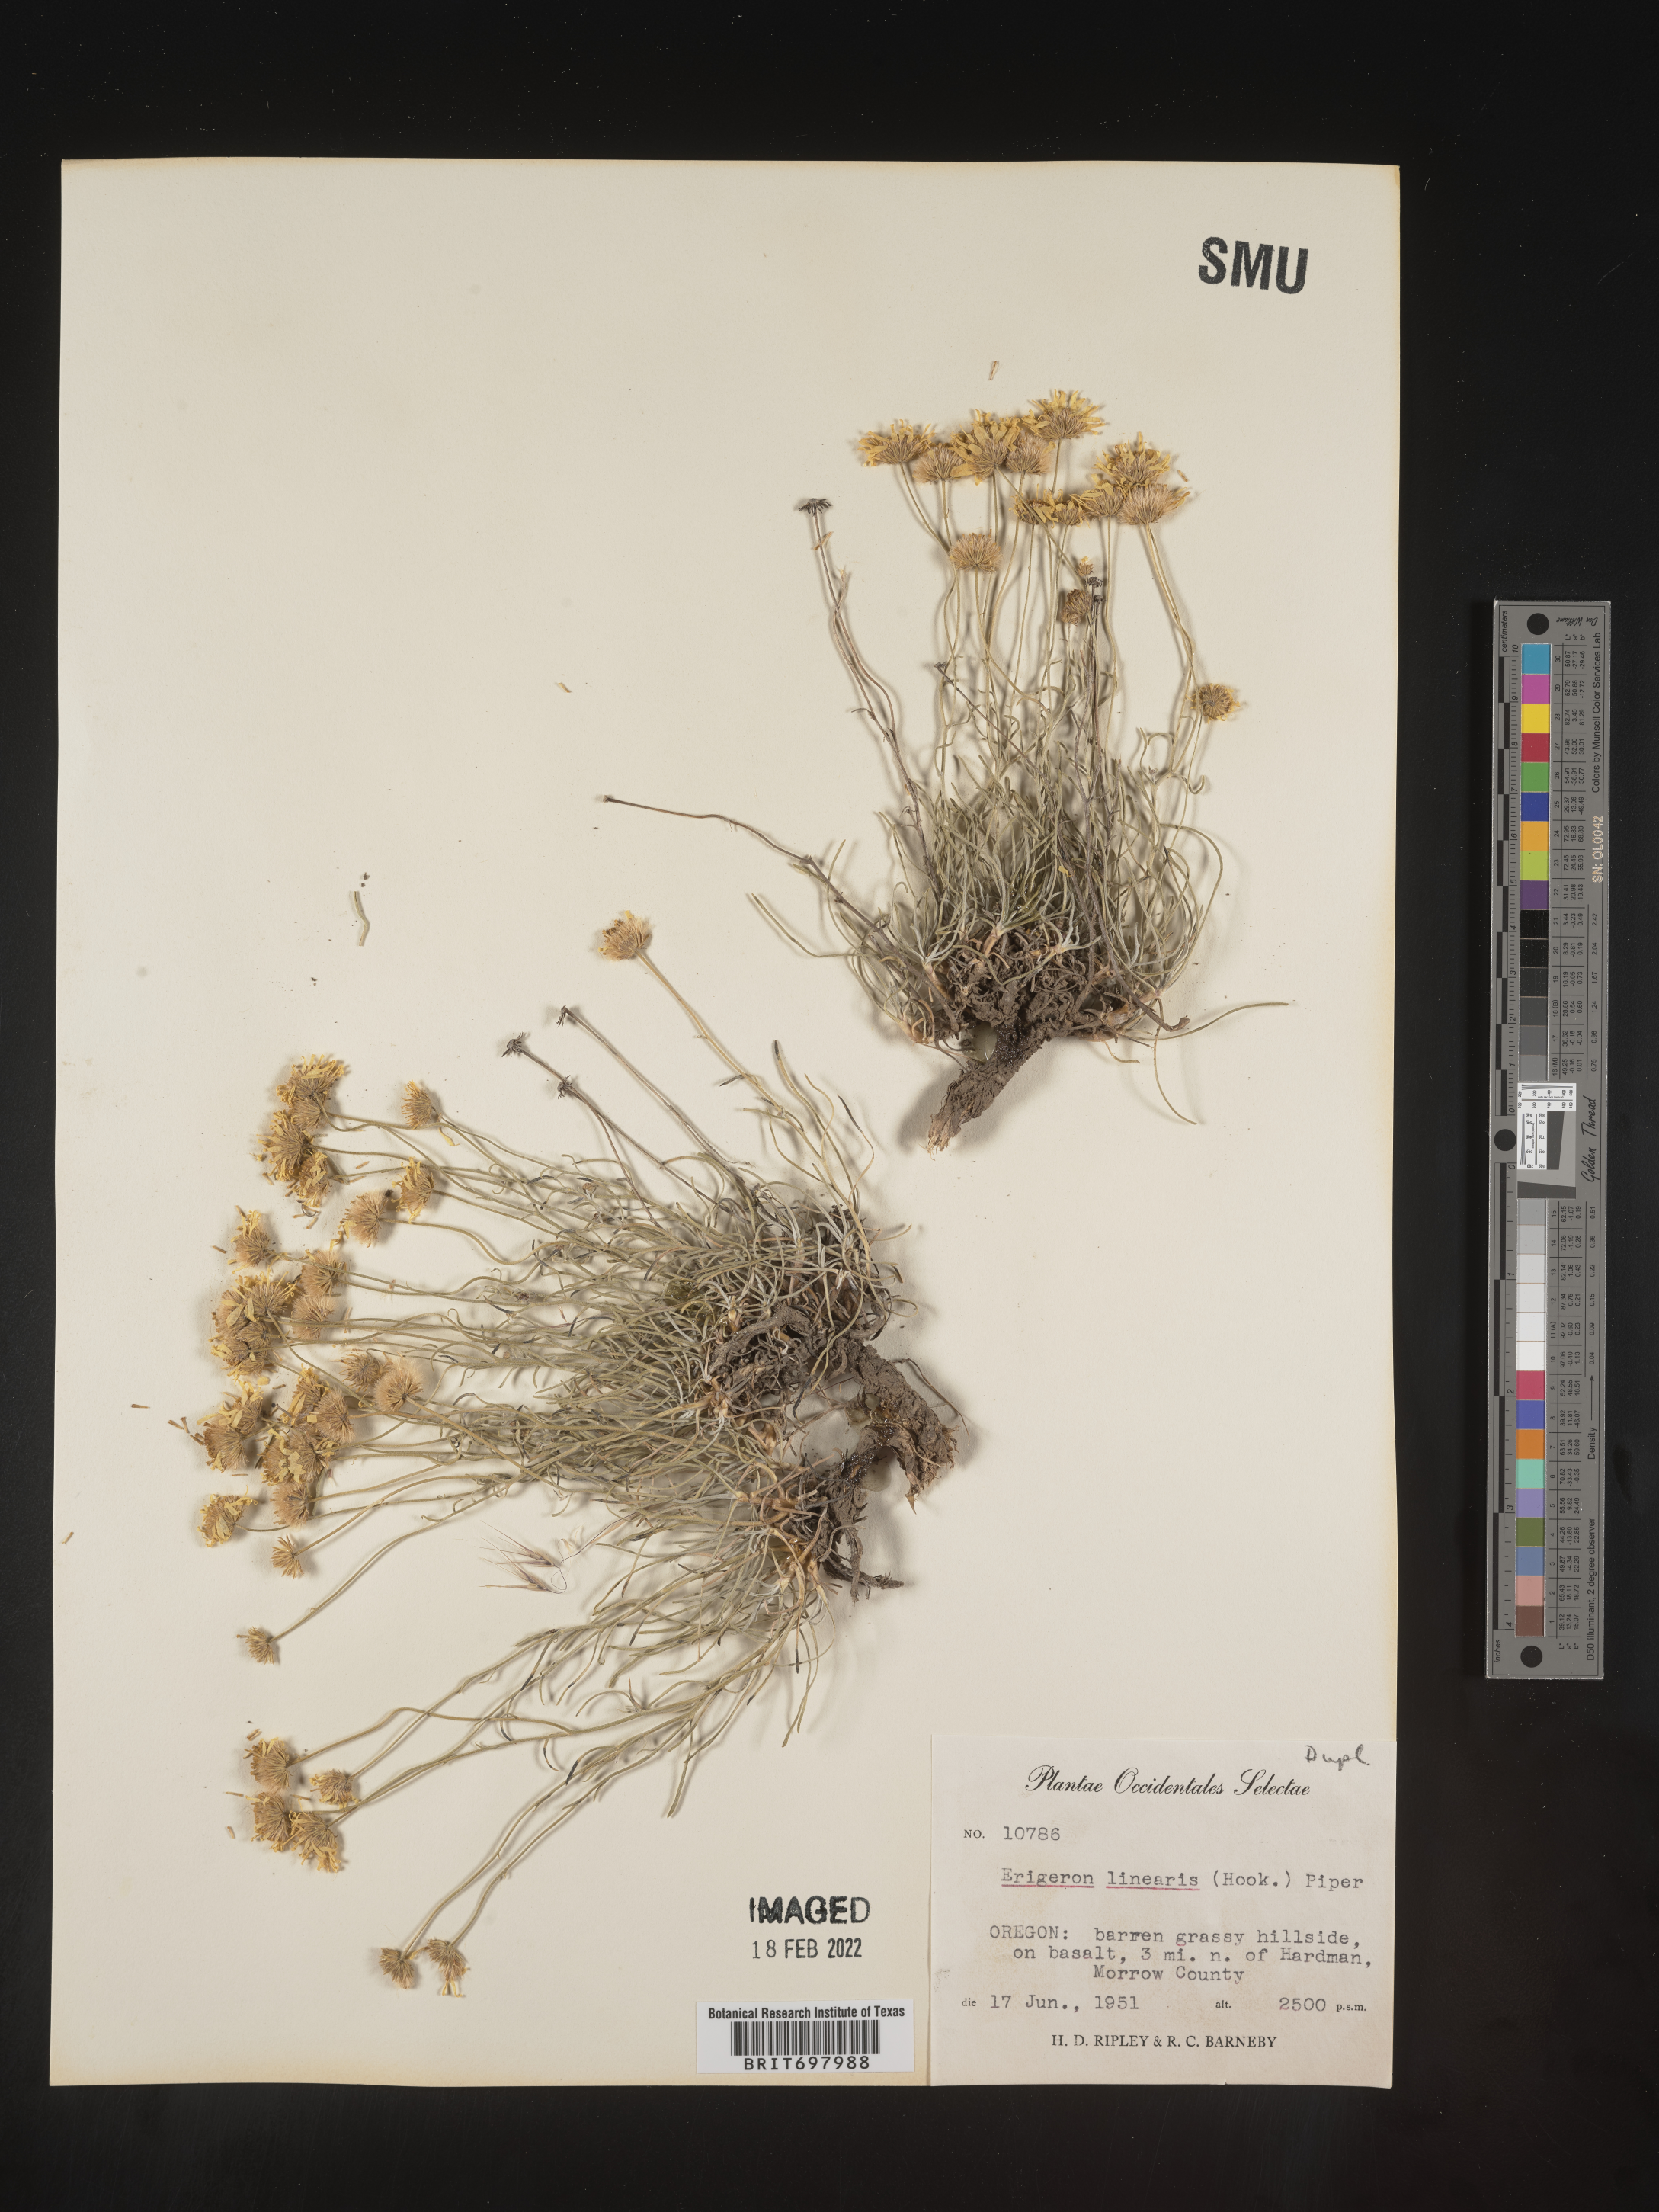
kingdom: Plantae
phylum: Tracheophyta
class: Magnoliopsida
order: Asterales
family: Asteraceae
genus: Erigeron
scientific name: Erigeron linearis
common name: Desert yellow fleabane
